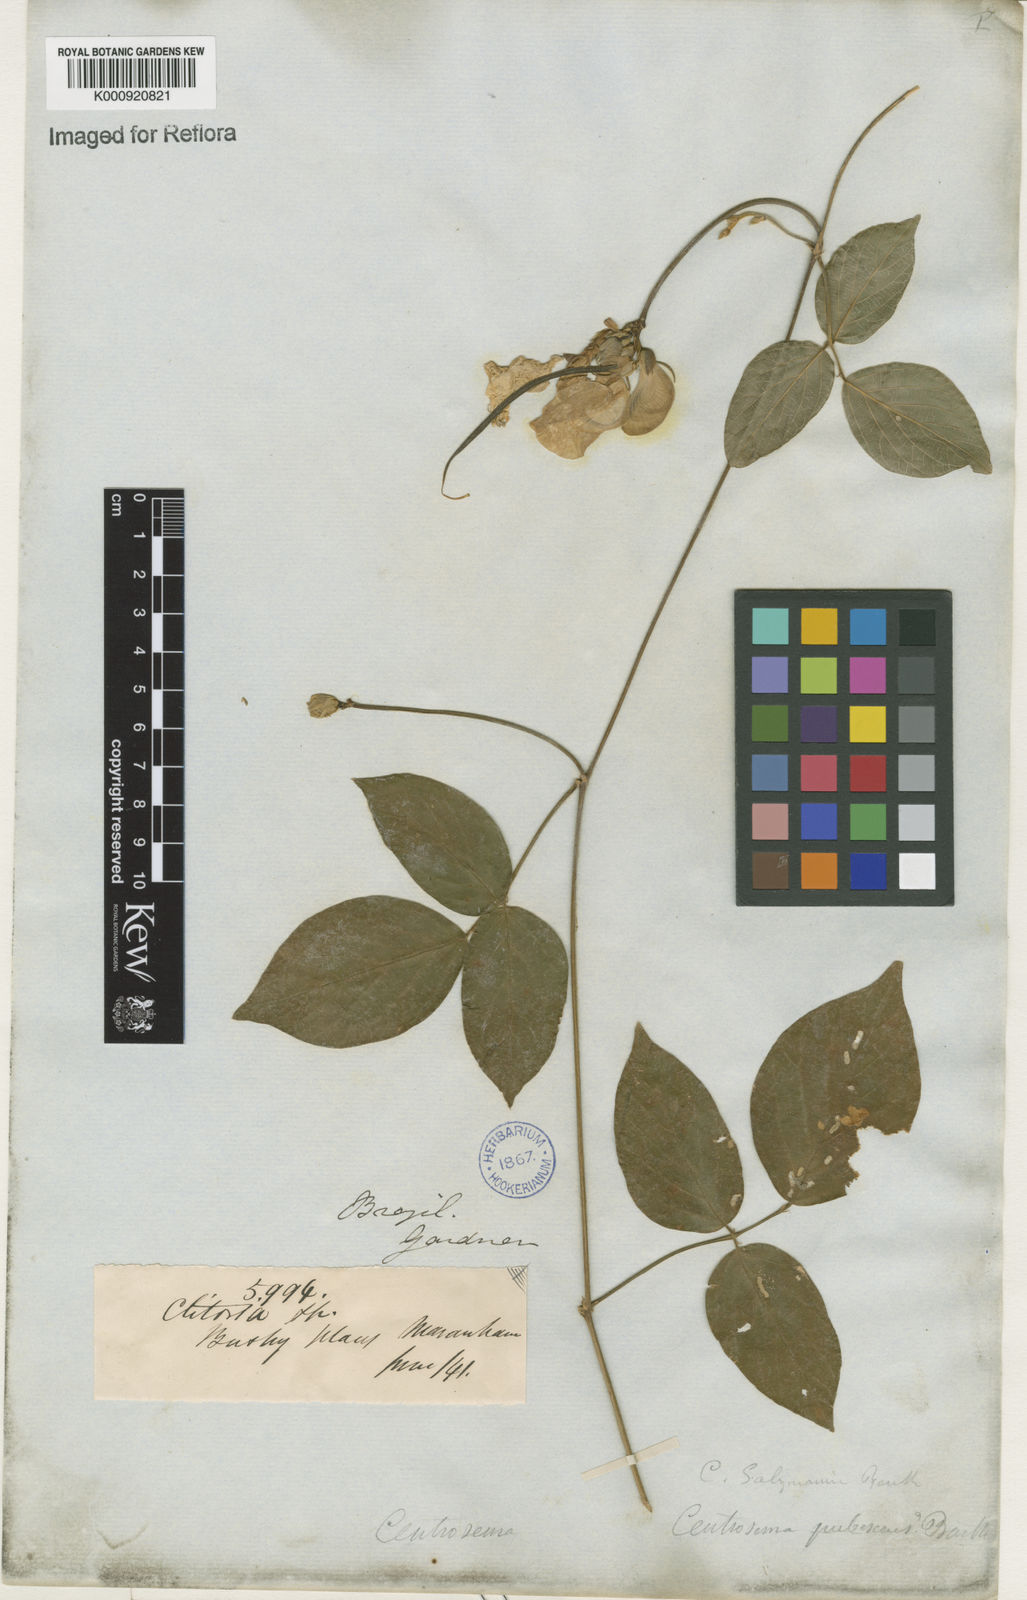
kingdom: Plantae
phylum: Tracheophyta
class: Magnoliopsida
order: Fabales
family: Fabaceae
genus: Centrosema
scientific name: Centrosema pubescens
